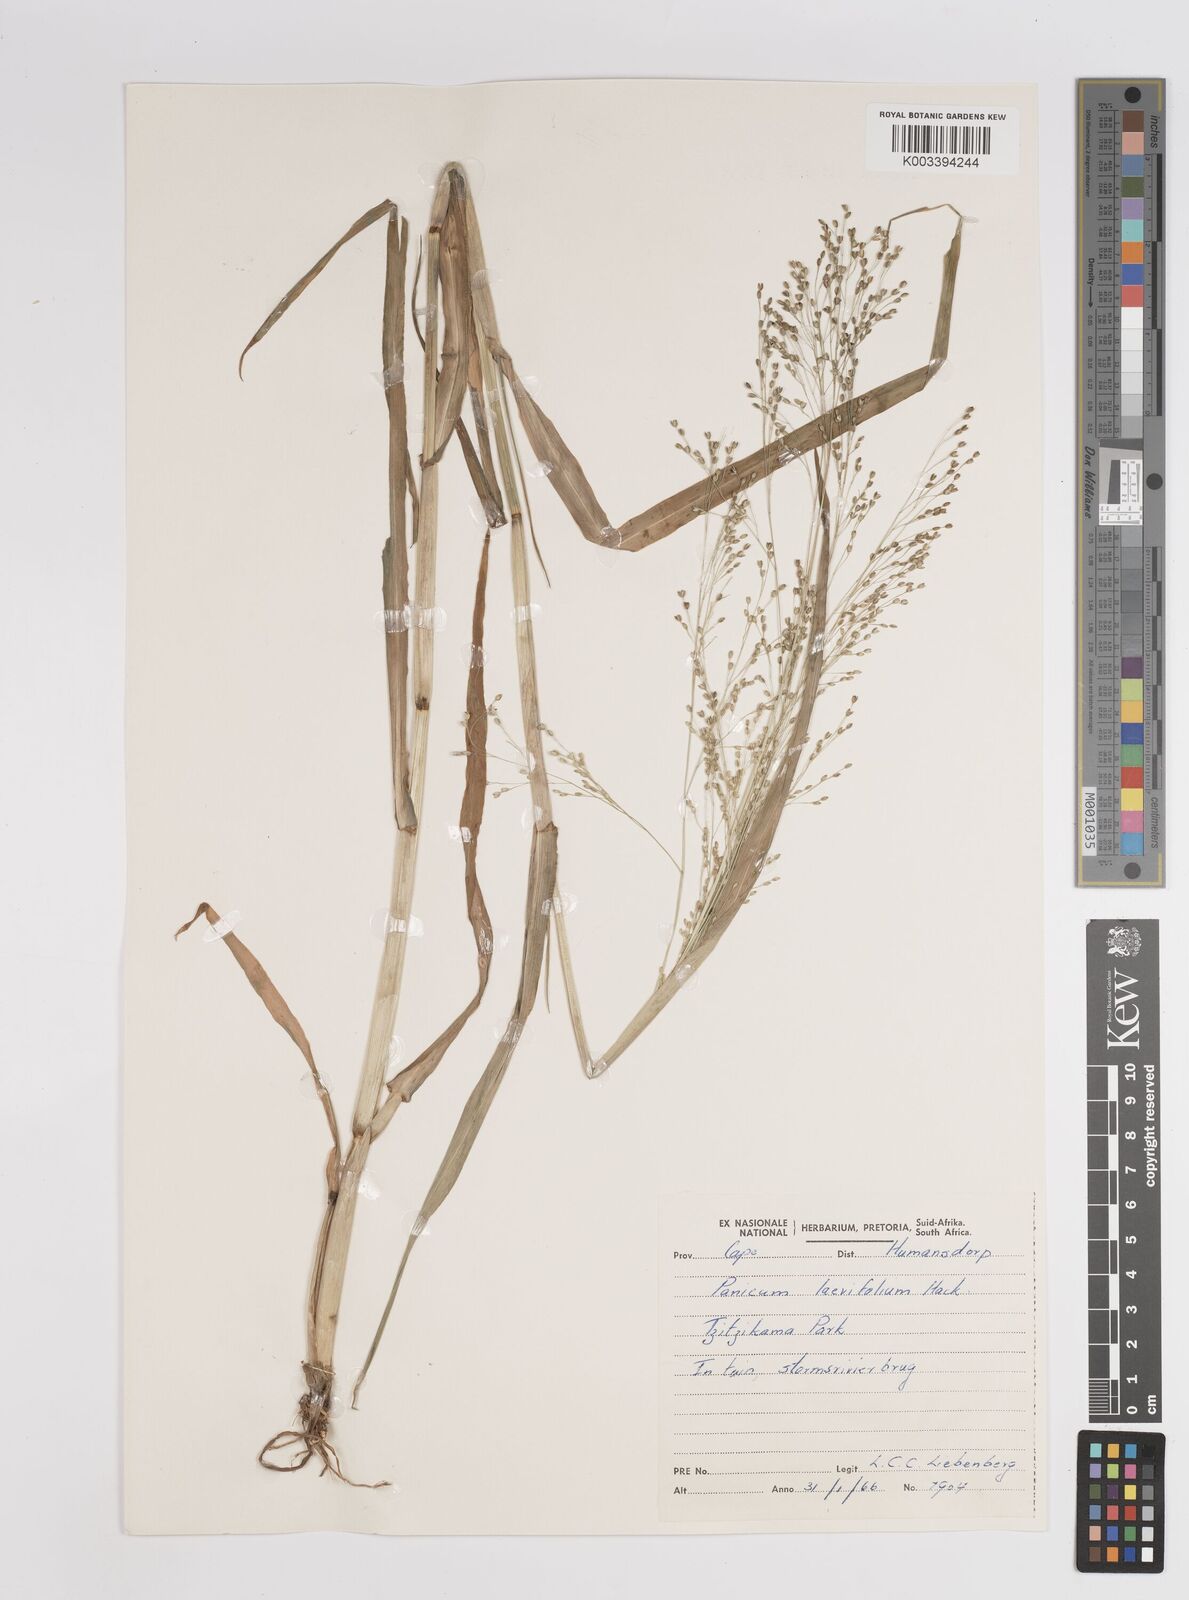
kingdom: Plantae
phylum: Tracheophyta
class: Liliopsida
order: Poales
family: Poaceae
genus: Panicum
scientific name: Panicum schinzii
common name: Sweet grass
